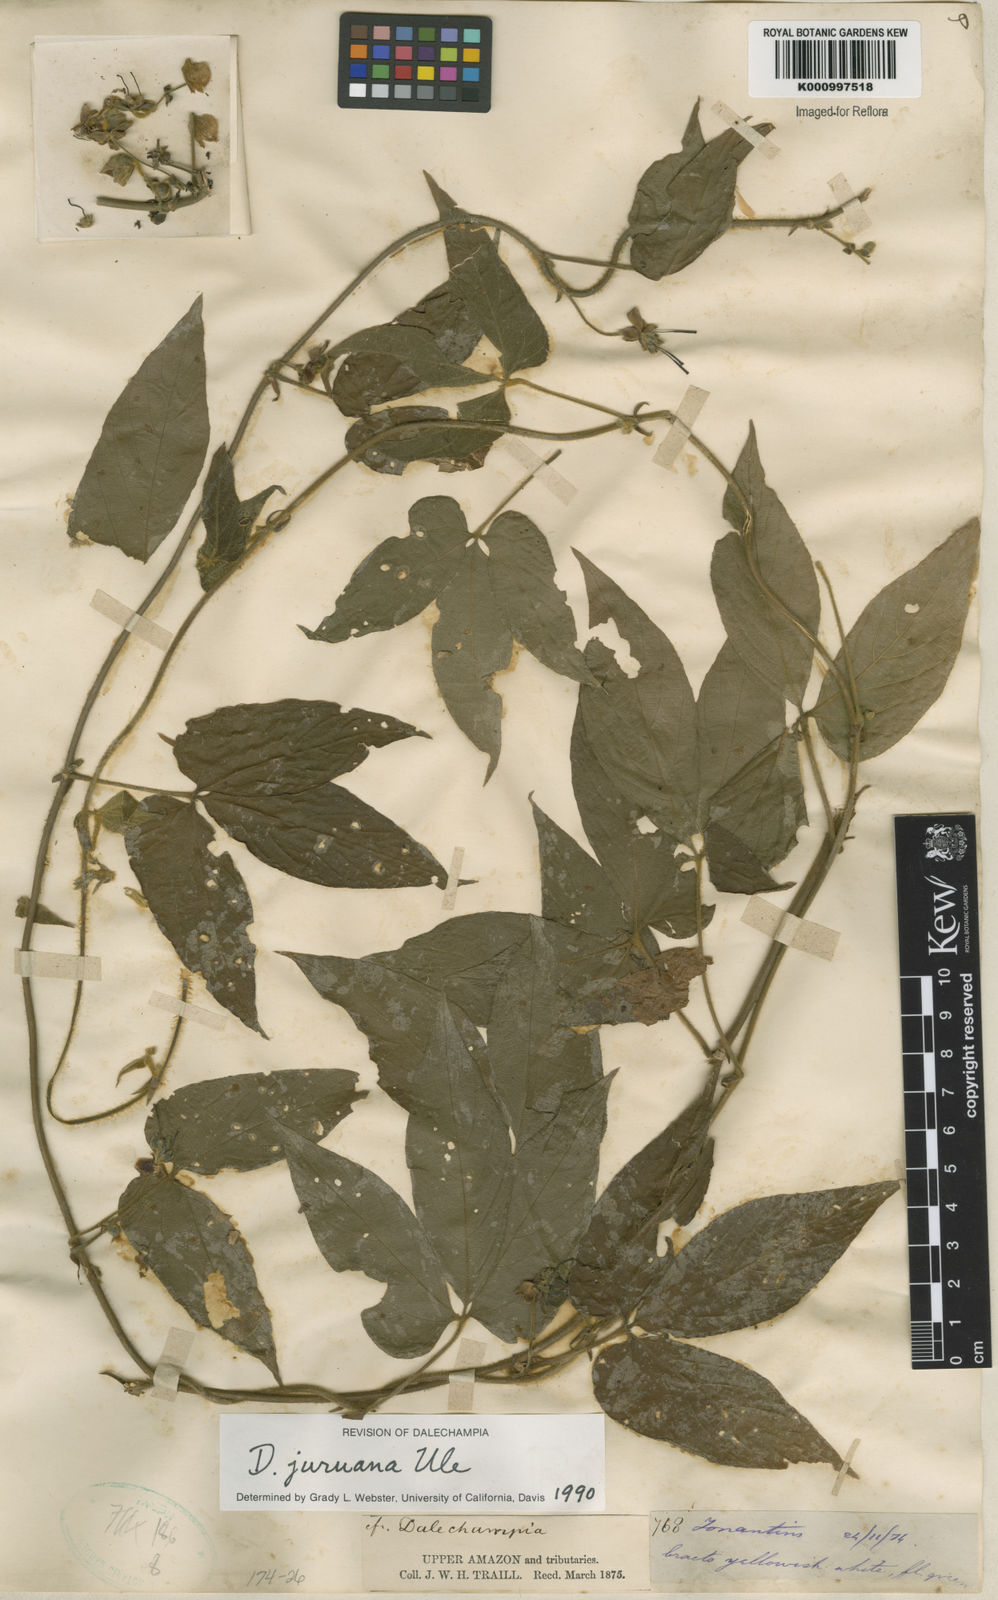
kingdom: Plantae
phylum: Tracheophyta
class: Magnoliopsida
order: Malpighiales
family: Euphorbiaceae
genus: Dalechampia
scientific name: Dalechampia juruana
